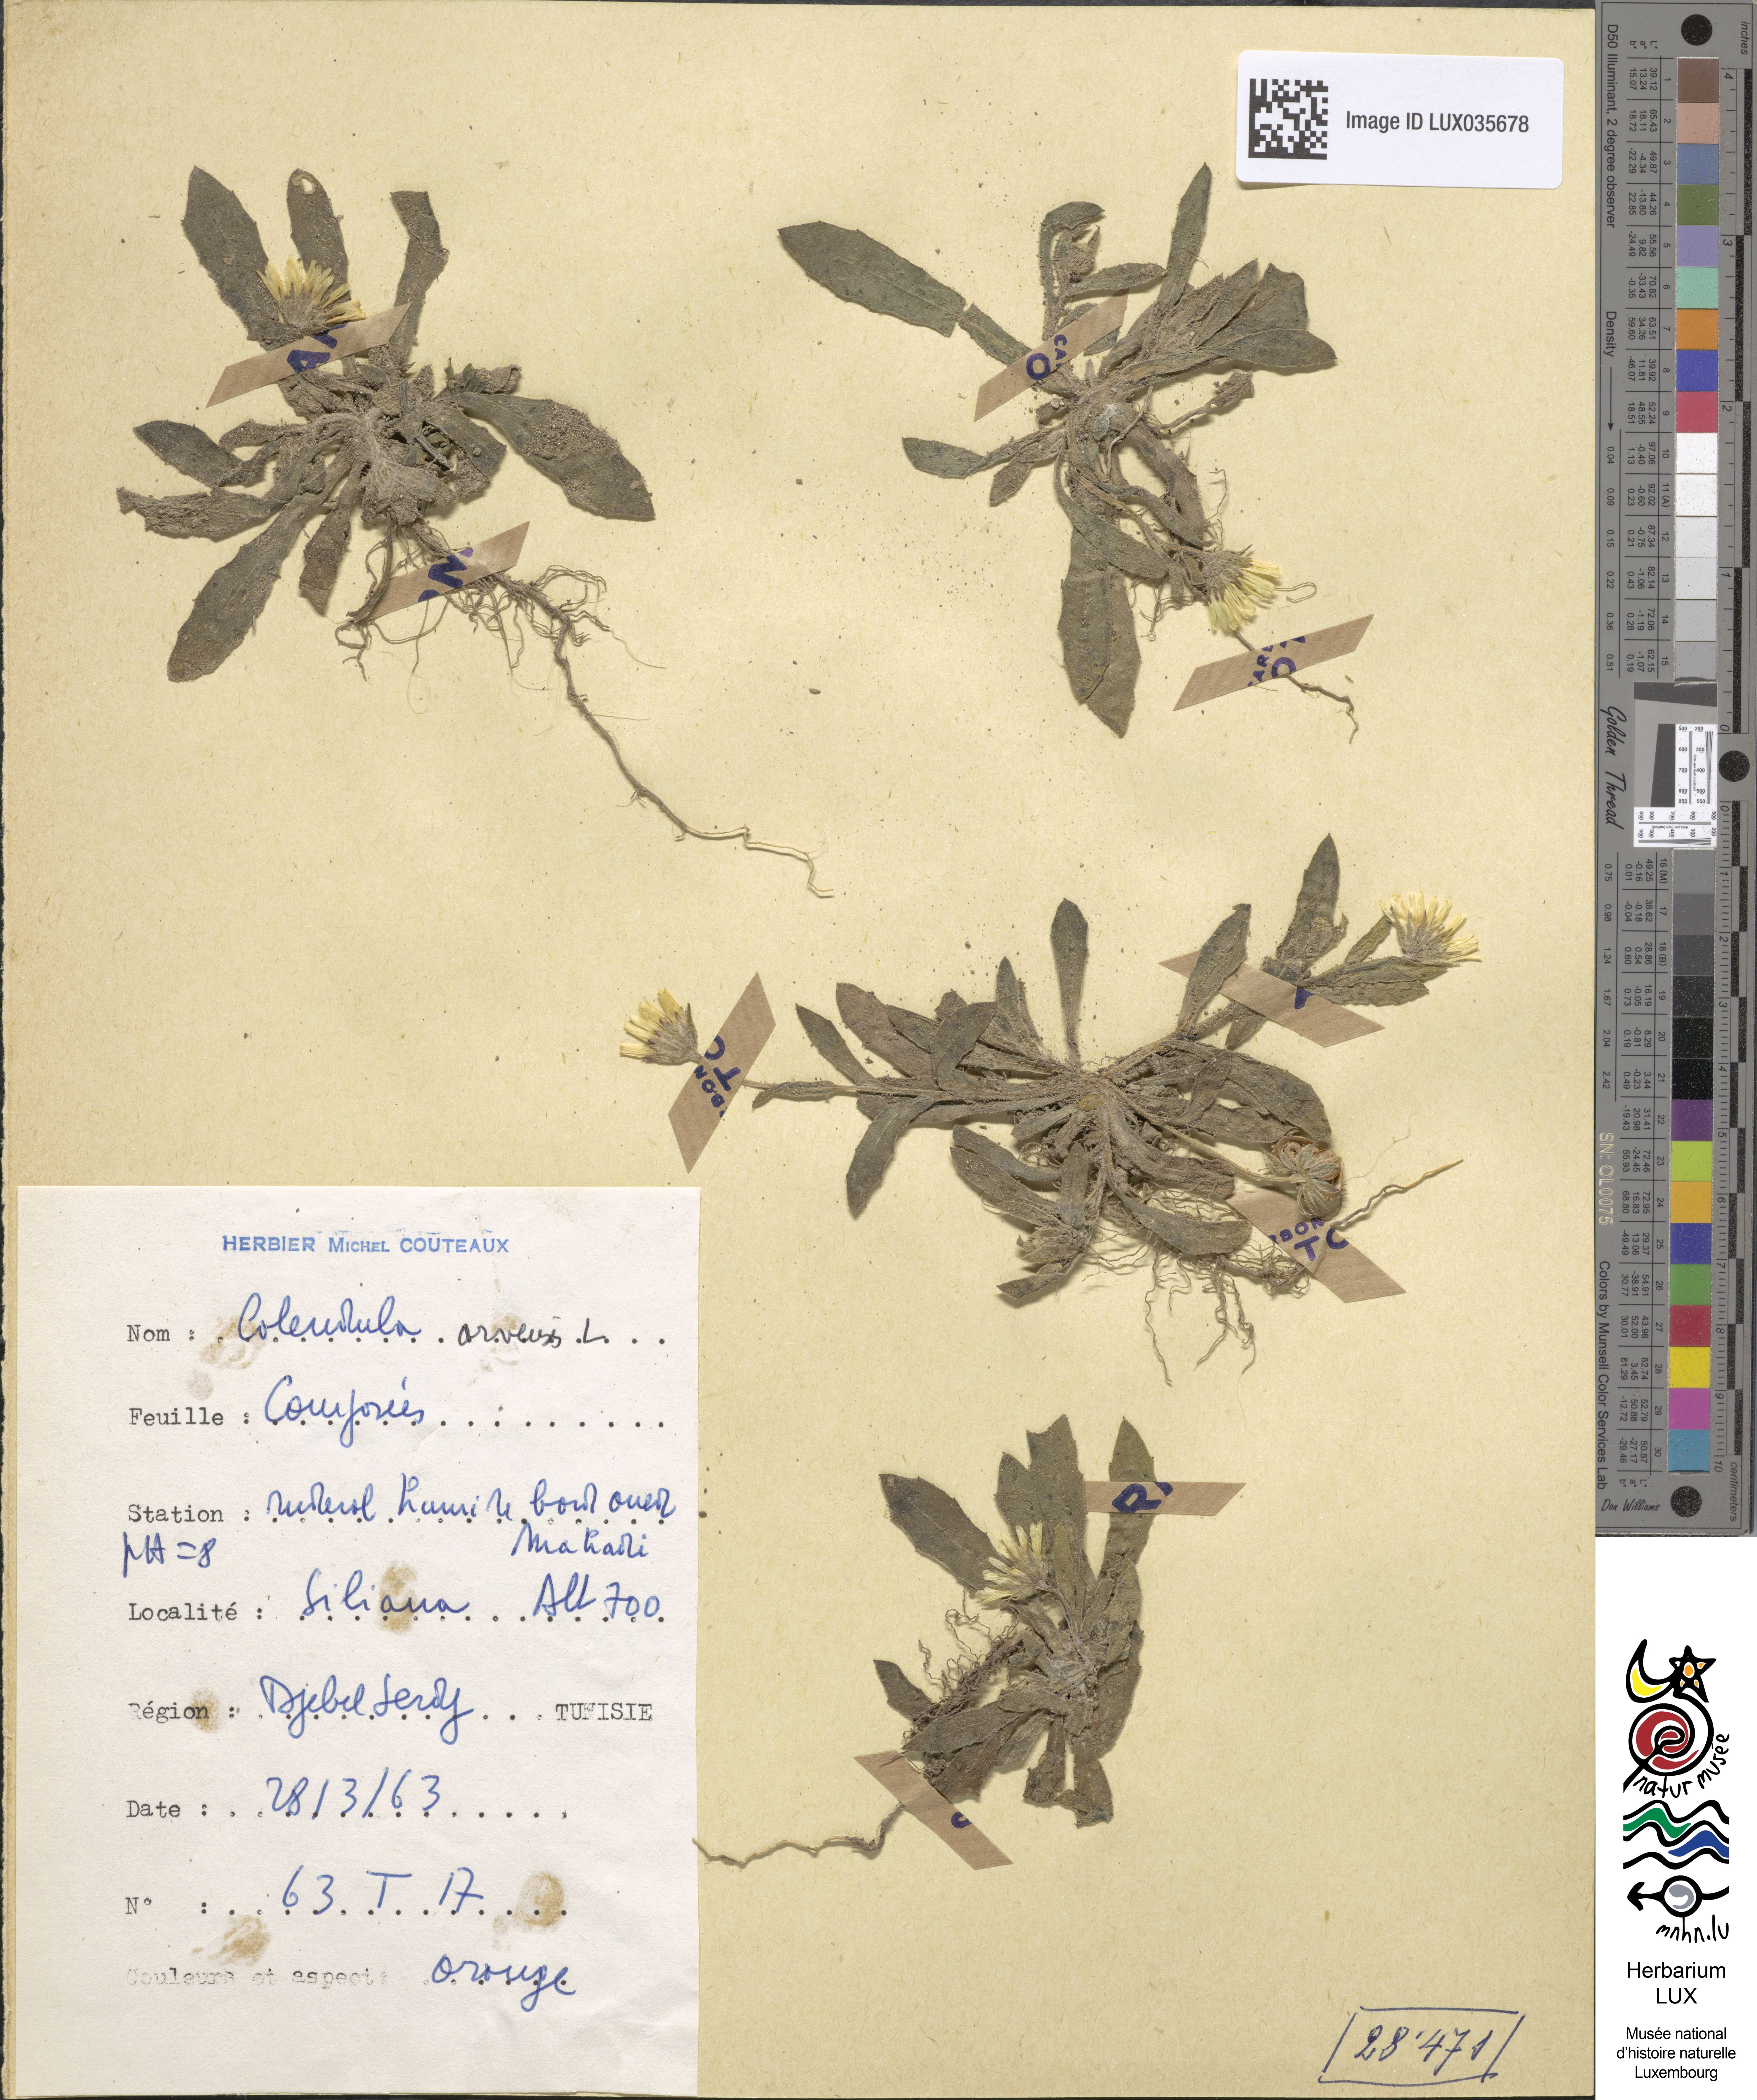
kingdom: Plantae
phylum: Tracheophyta
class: Magnoliopsida
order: Asterales
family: Asteraceae
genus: Calendula
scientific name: Calendula arvensis
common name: Field marigold
